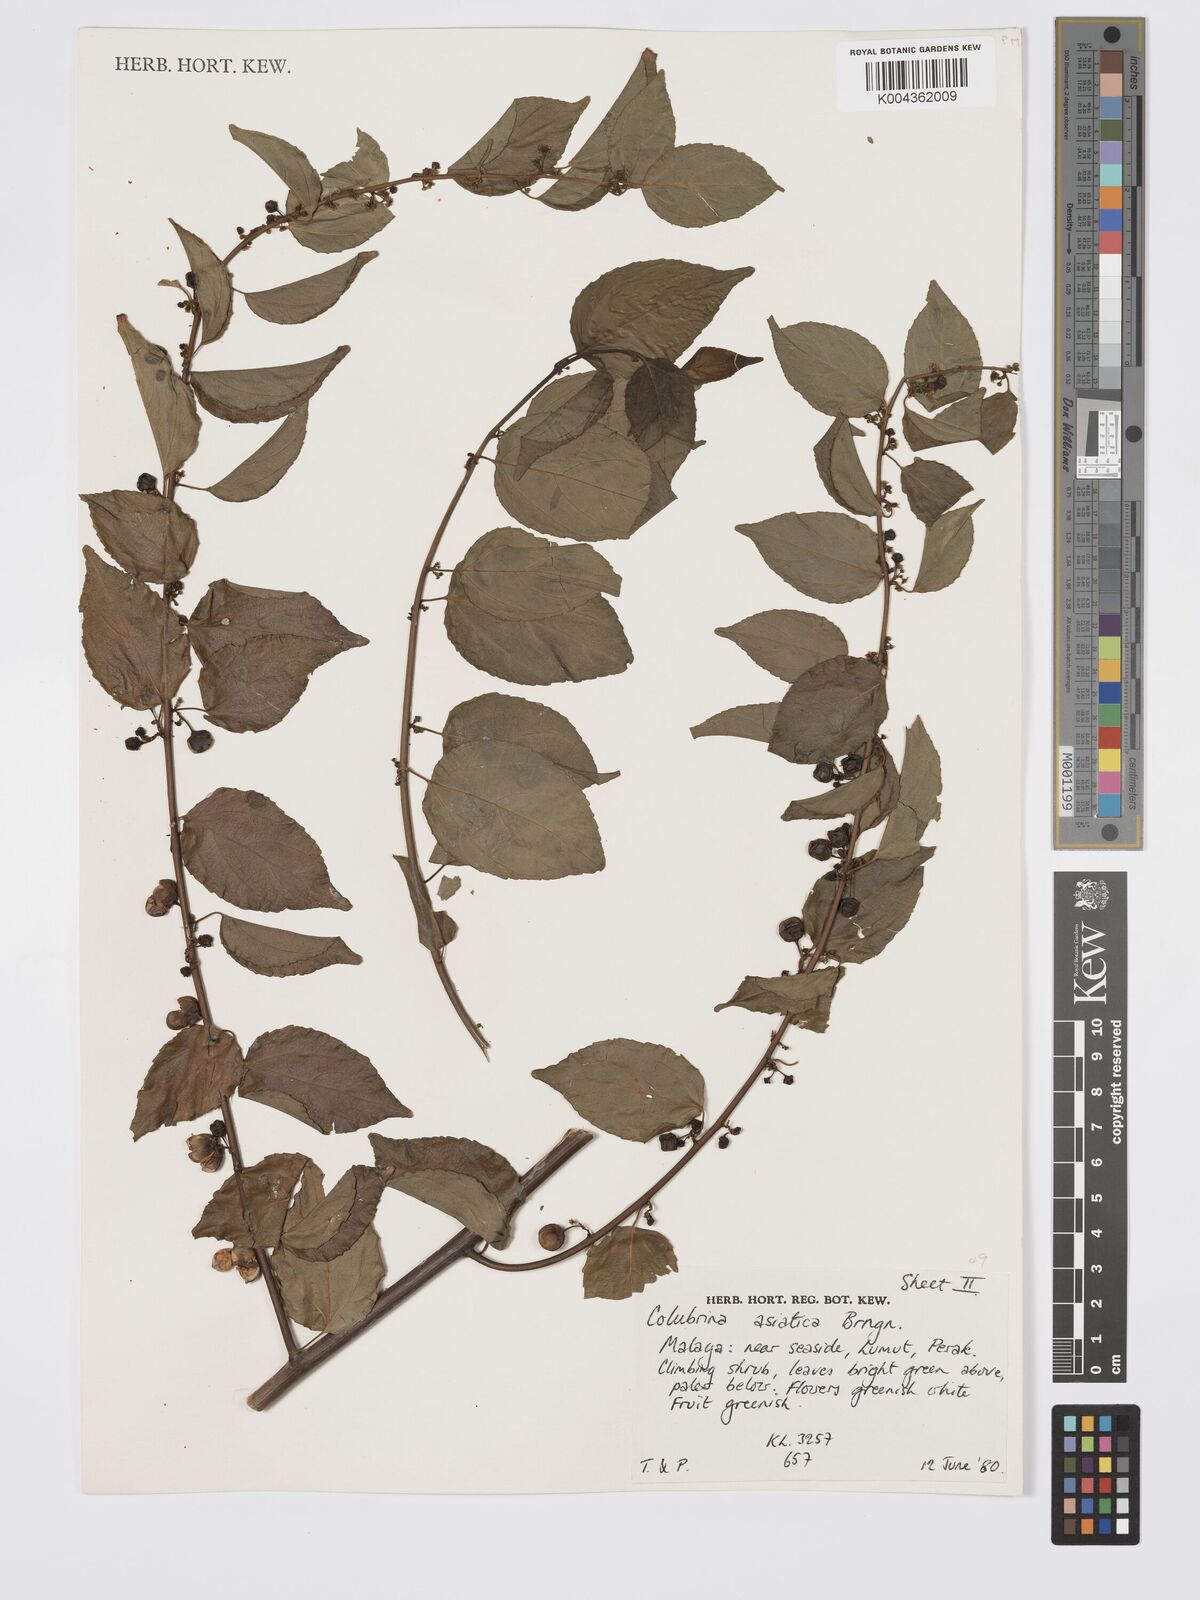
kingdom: Plantae
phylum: Tracheophyta
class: Magnoliopsida
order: Rosales
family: Rhamnaceae
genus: Colubrina
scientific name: Colubrina asiatica
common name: Asian nakedwood
